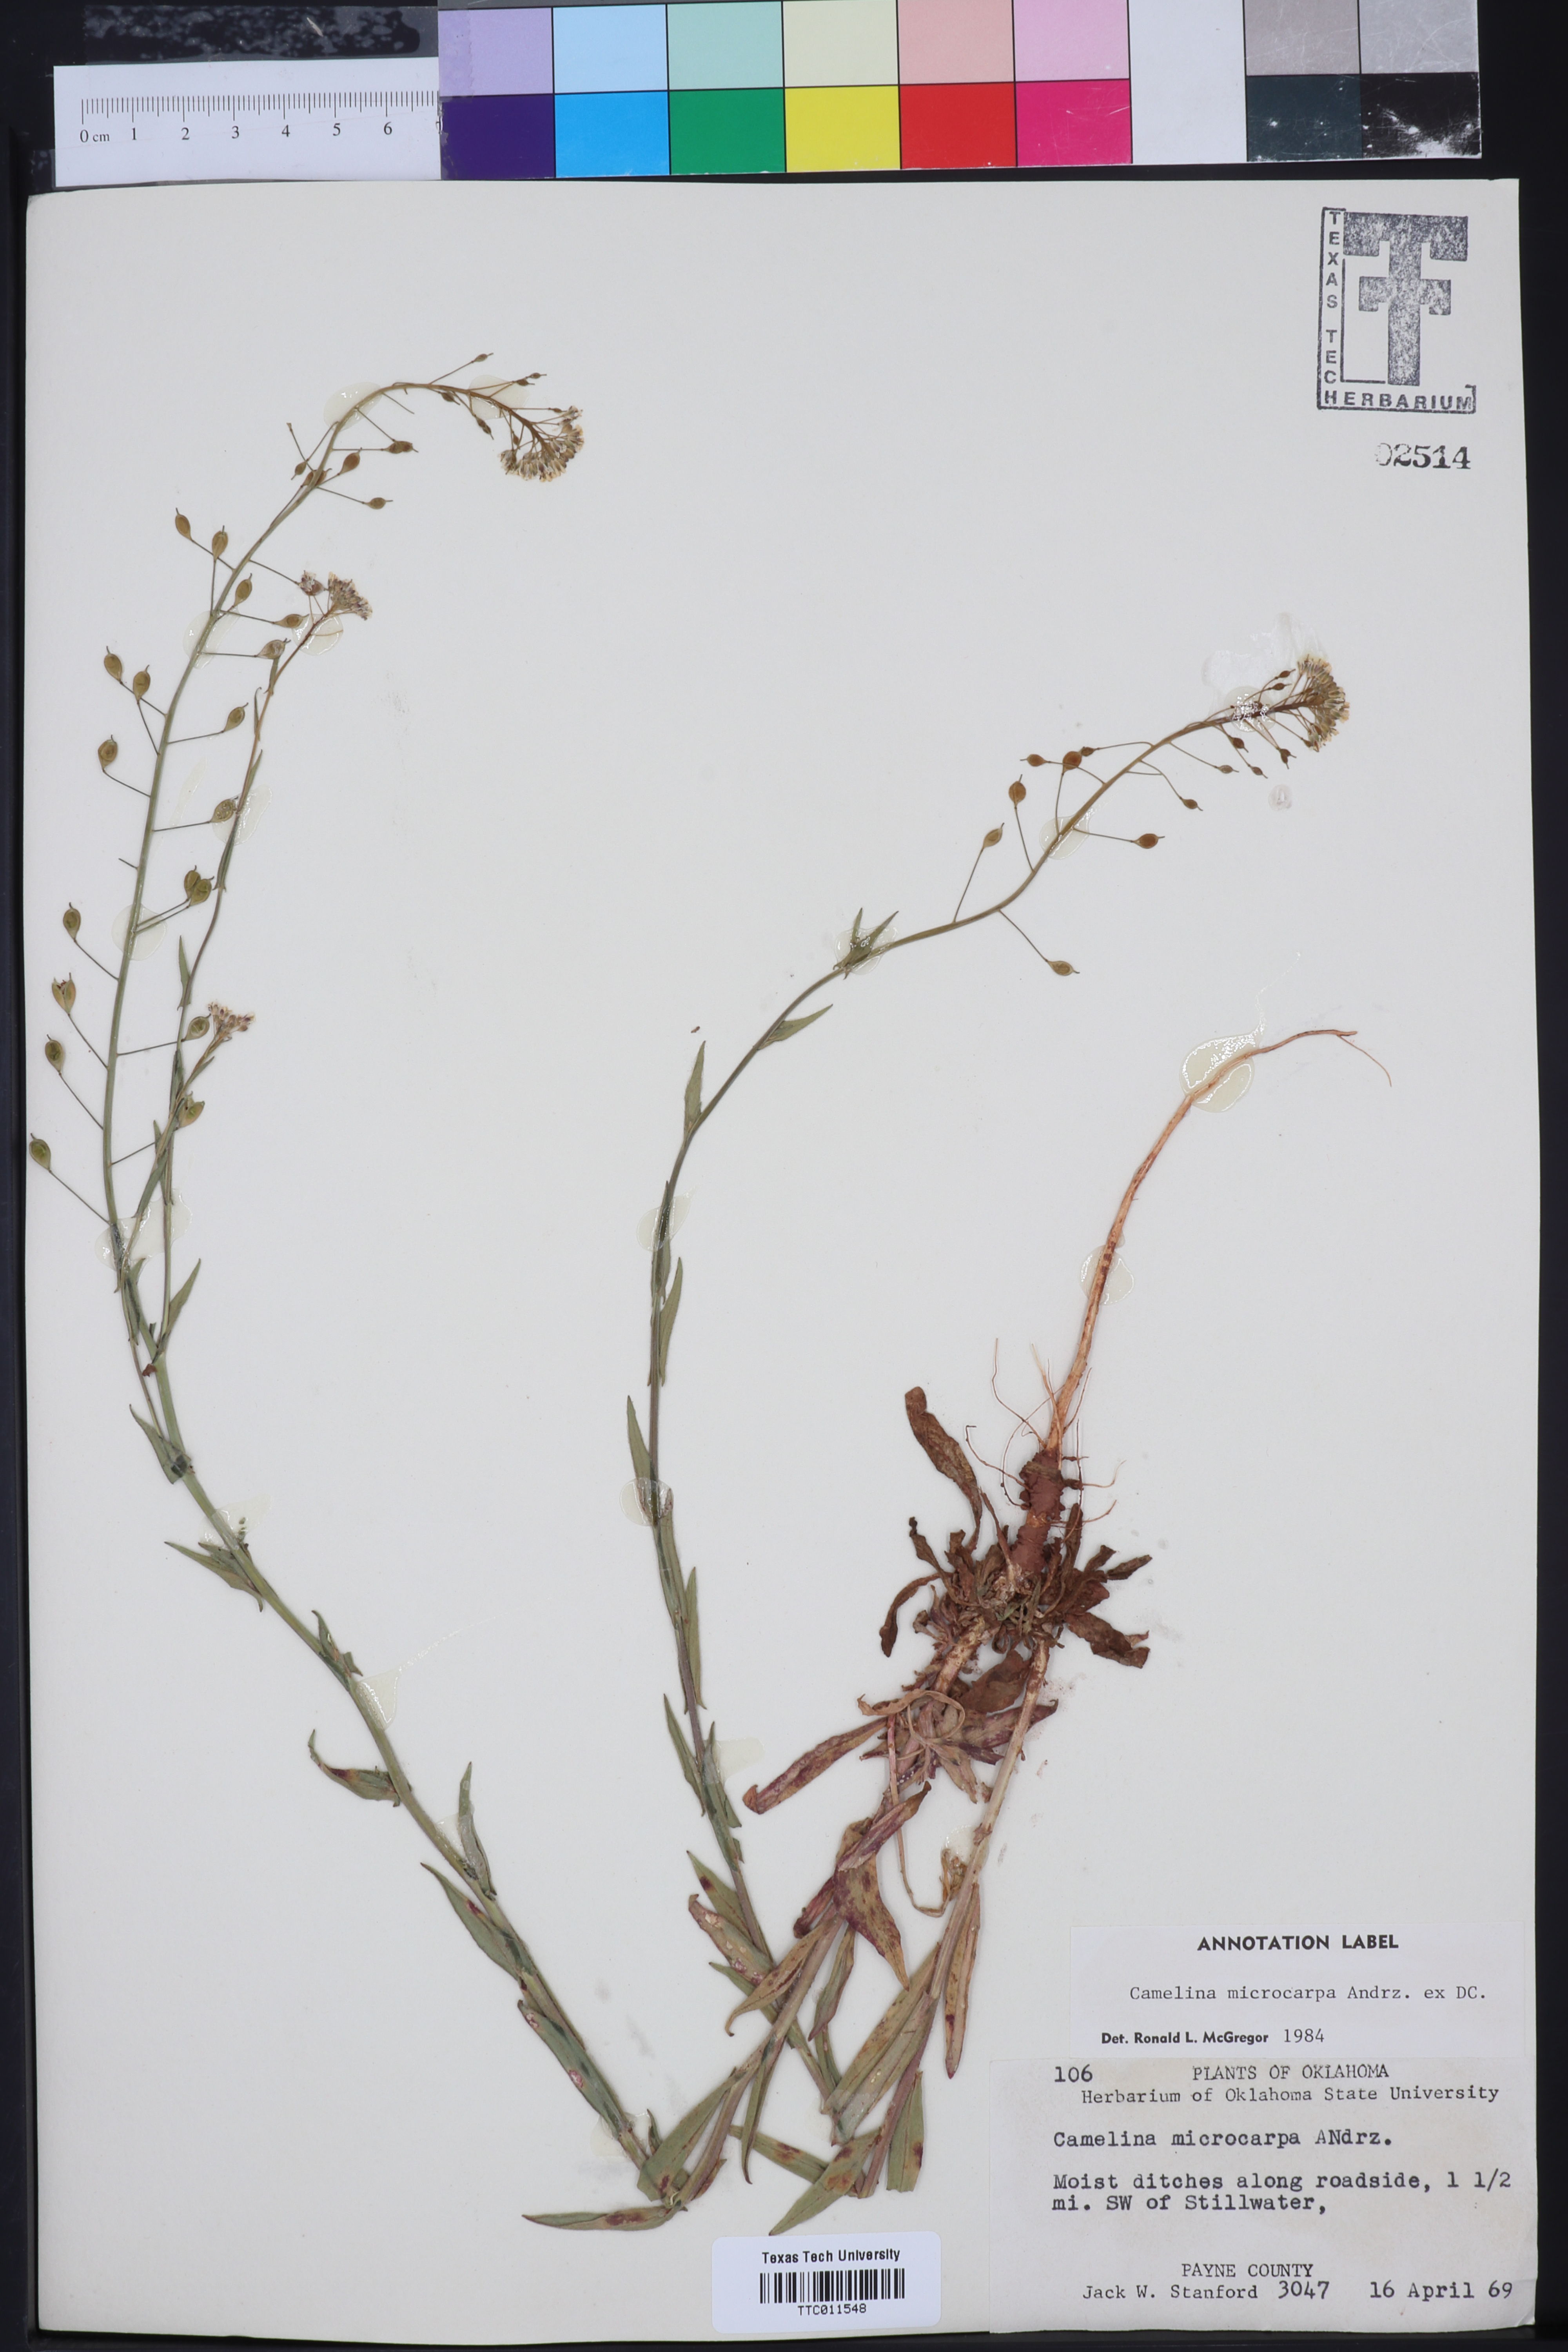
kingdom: Plantae
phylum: Tracheophyta
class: Magnoliopsida
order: Brassicales
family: Brassicaceae
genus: Camelina
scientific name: Camelina microcarpa
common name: Lesser gold-of-pleasure
